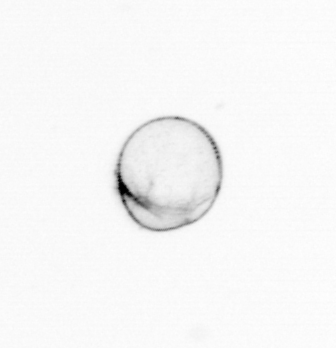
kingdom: Chromista
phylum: Myzozoa
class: Dinophyceae
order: Noctilucales
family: Noctilucaceae
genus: Noctiluca
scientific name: Noctiluca scintillans
